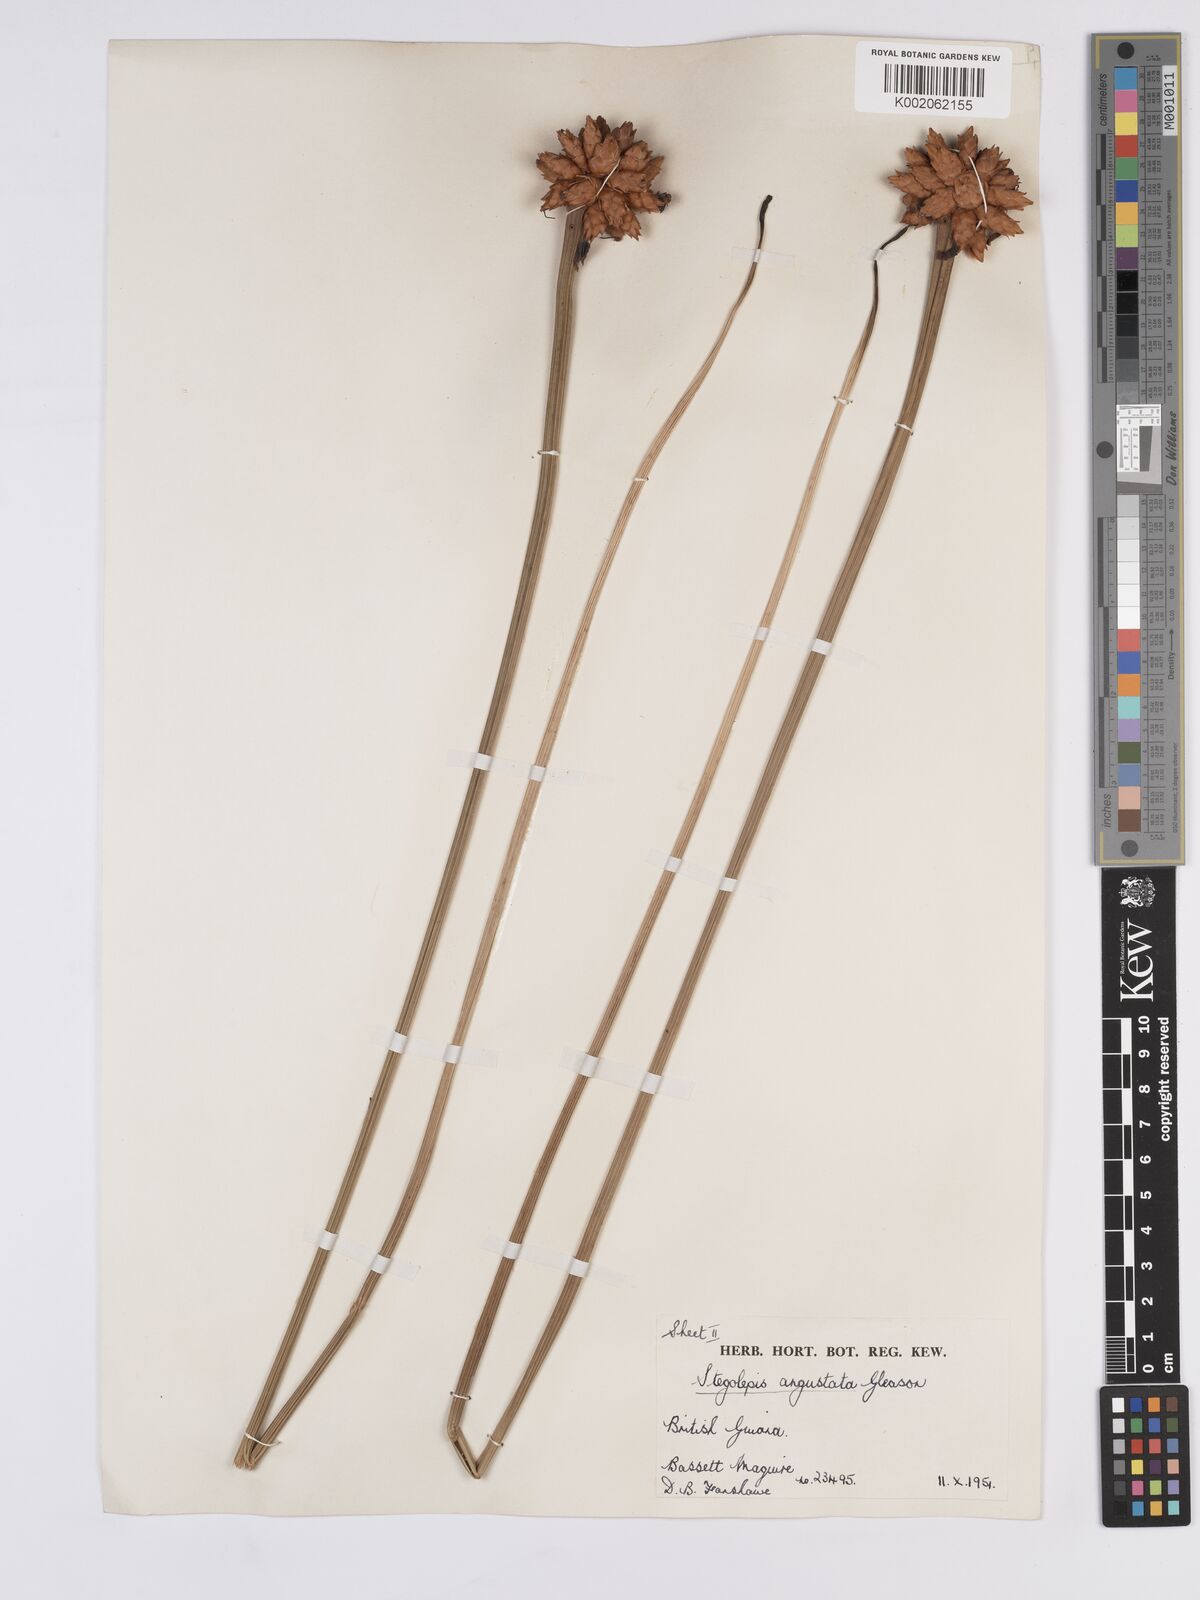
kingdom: Plantae
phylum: Tracheophyta
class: Liliopsida
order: Poales
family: Rapateaceae
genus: Stegolepis
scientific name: Stegolepis angustata
